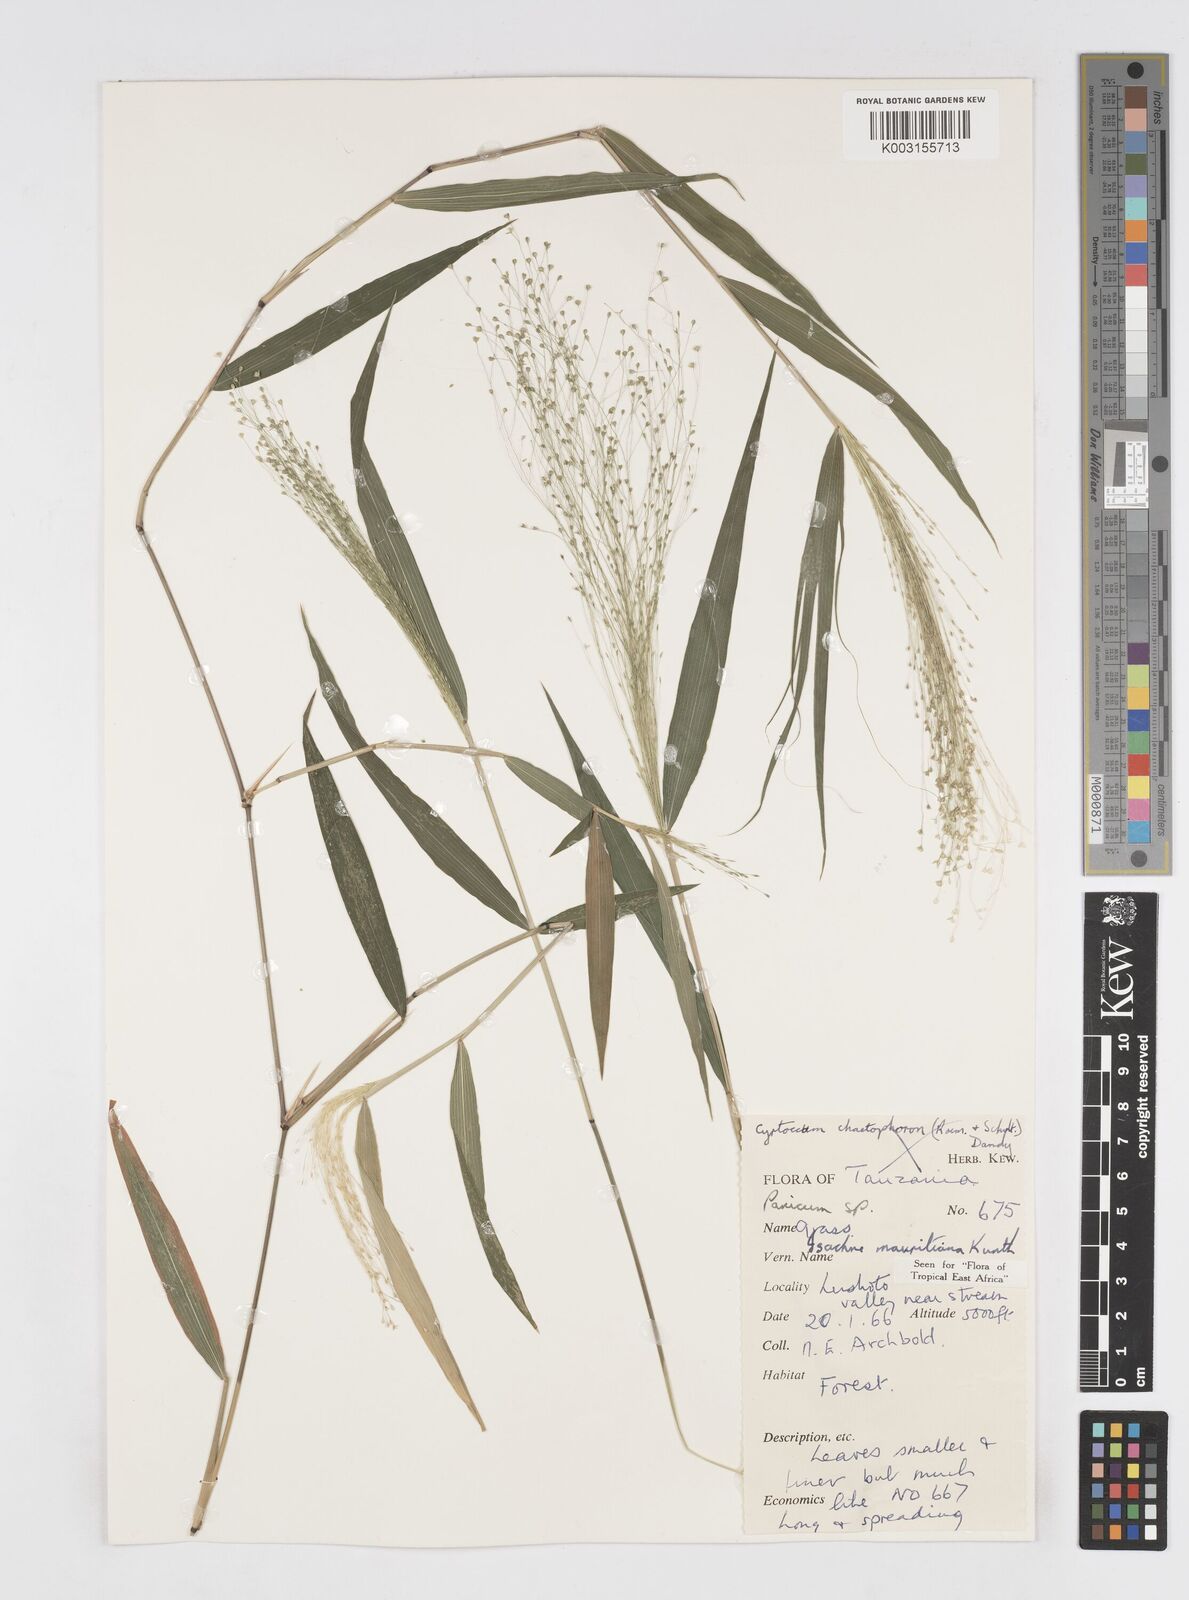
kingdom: Plantae
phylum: Tracheophyta
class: Liliopsida
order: Poales
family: Poaceae
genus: Isachne
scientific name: Isachne mauritiana
